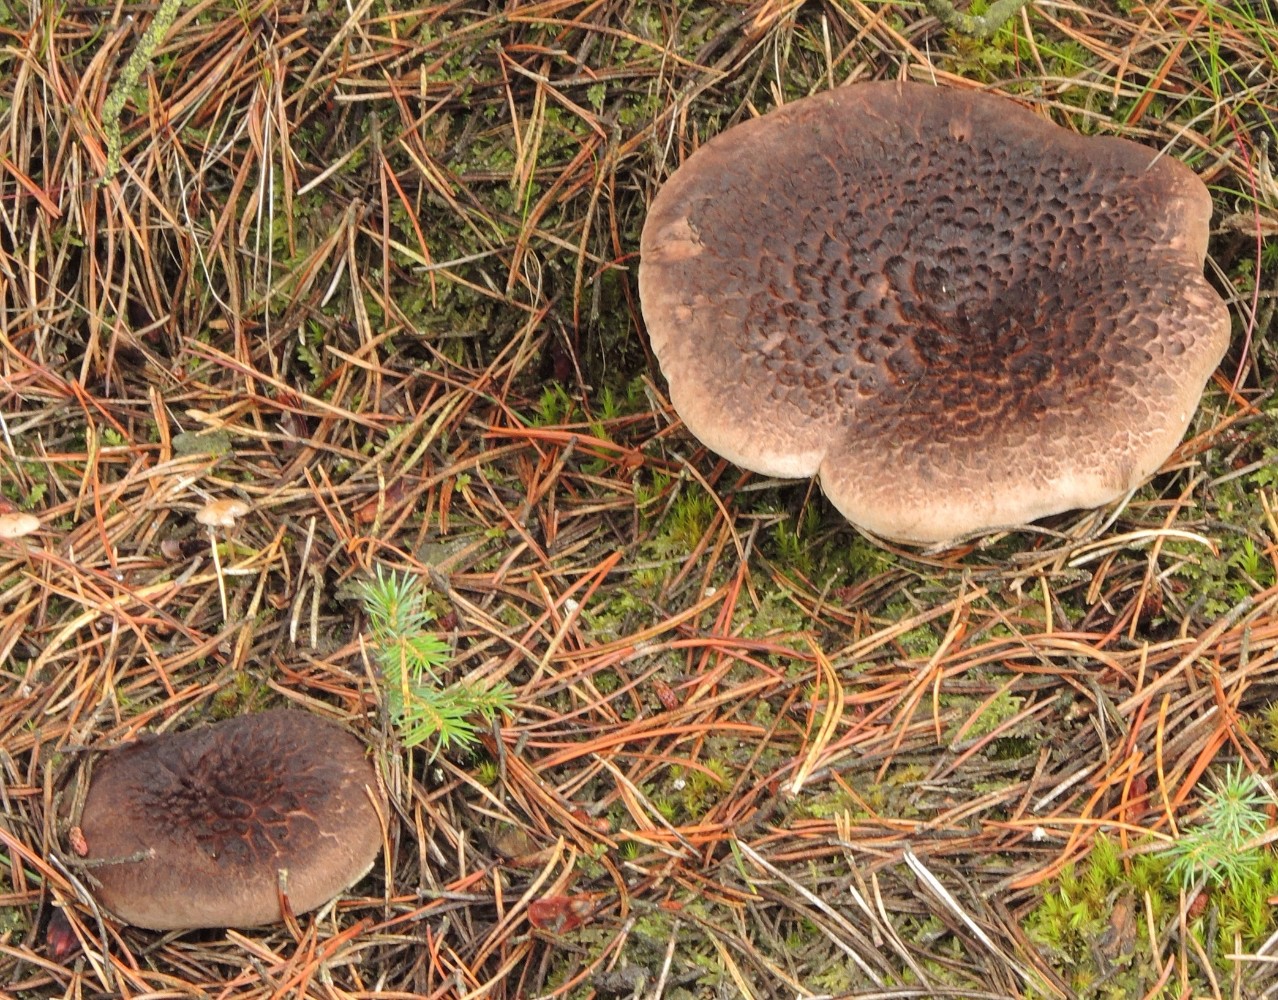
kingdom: Fungi
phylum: Basidiomycota
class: Agaricomycetes
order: Thelephorales
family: Bankeraceae
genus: Sarcodon
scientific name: Sarcodon squamosus
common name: småskællet kødpigsvamp
